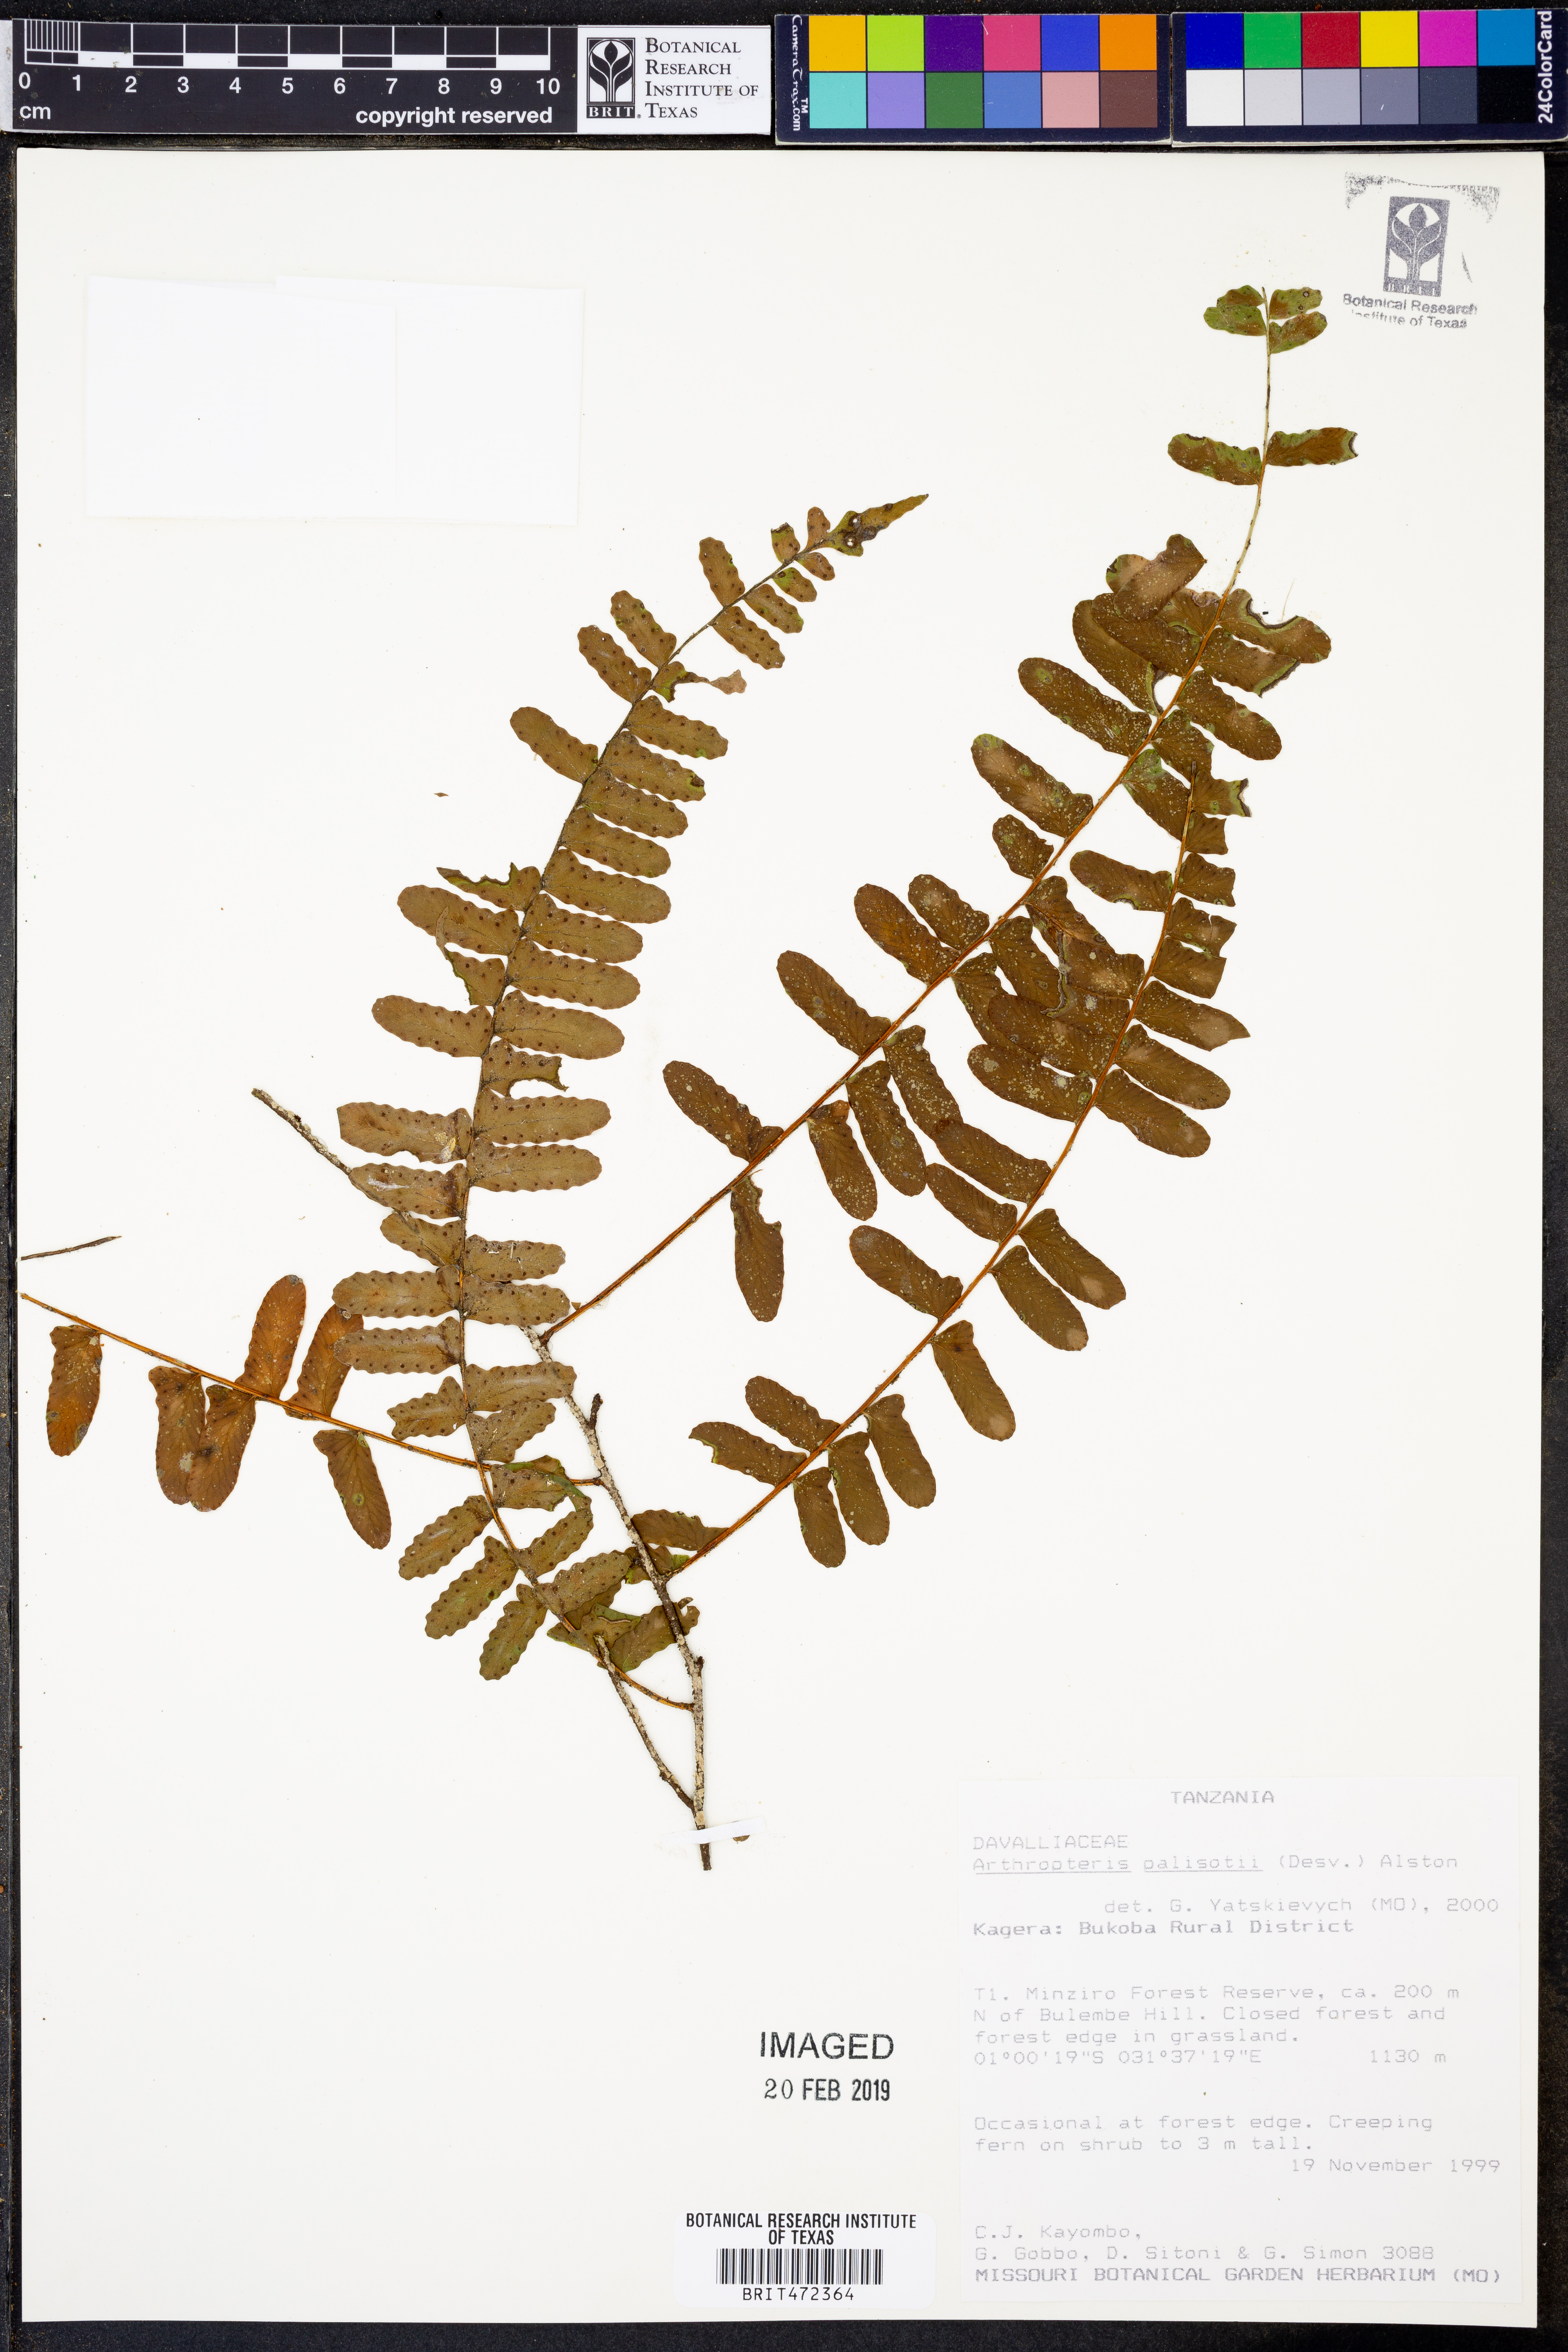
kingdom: Plantae
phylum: Tracheophyta
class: Polypodiopsida
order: Polypodiales
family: Tectariaceae
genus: Arthropteris
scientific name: Arthropteris palisotii
